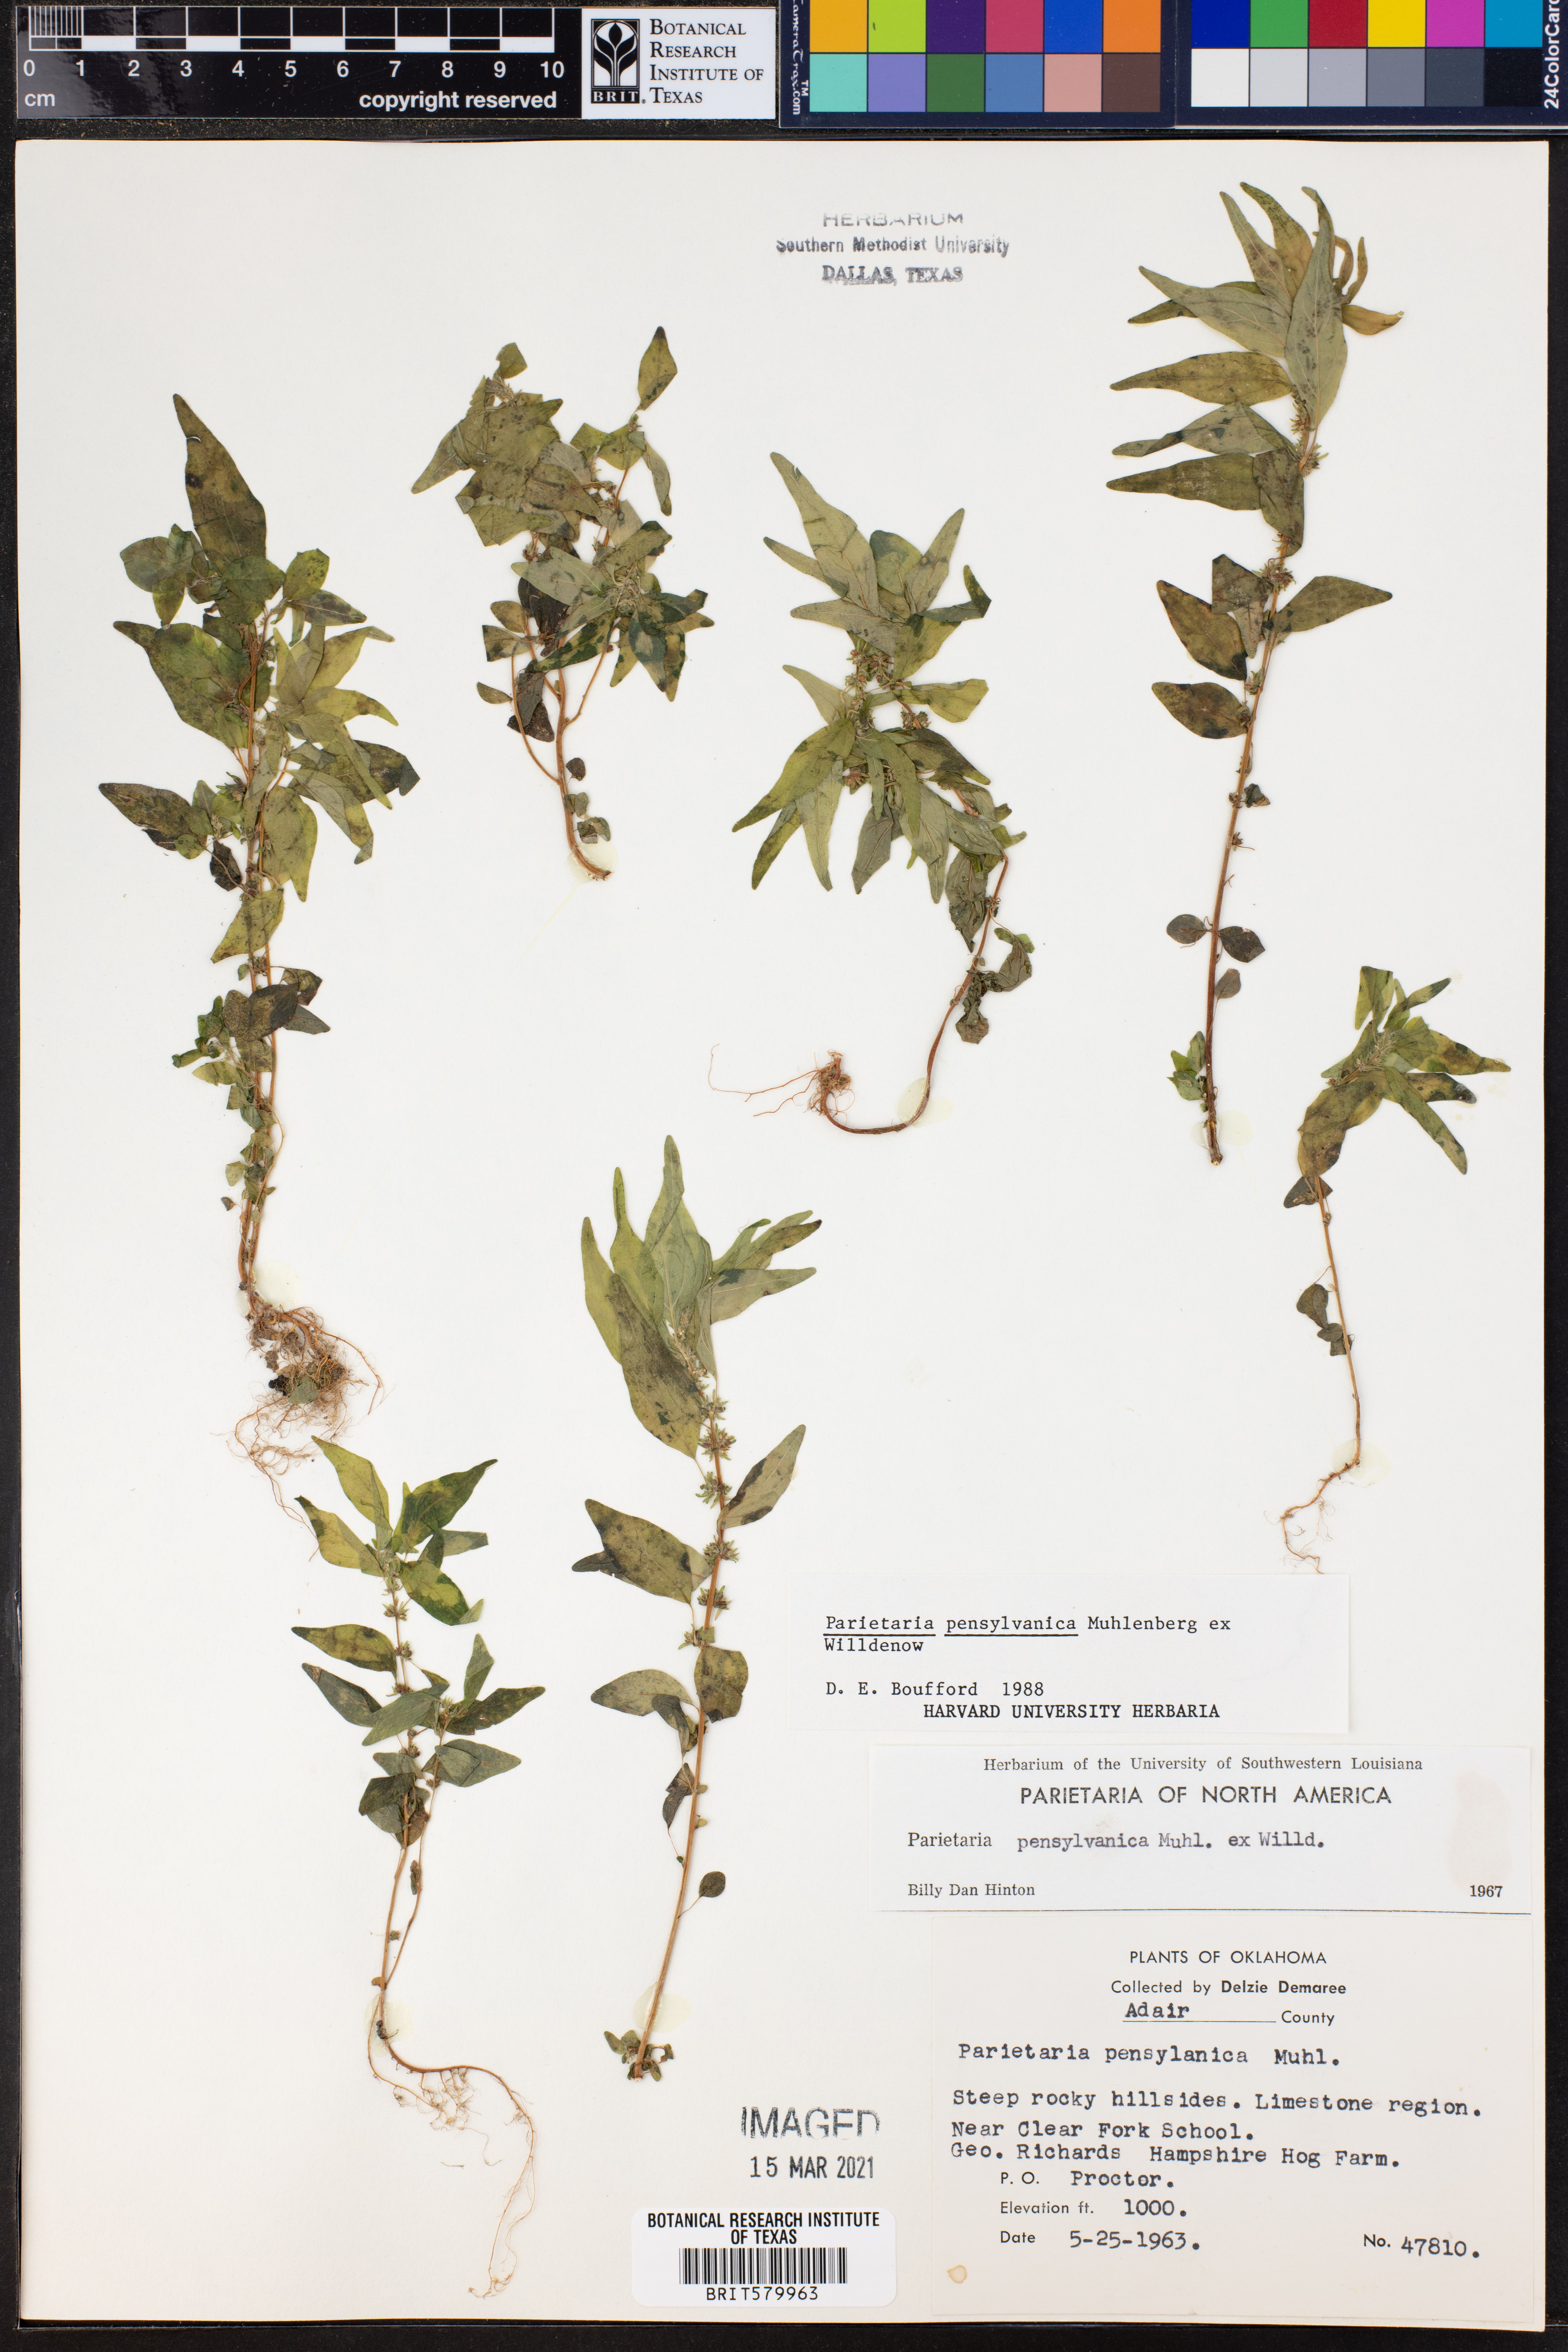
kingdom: Plantae
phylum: Tracheophyta
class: Magnoliopsida
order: Rosales
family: Urticaceae
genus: Parietaria
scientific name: Parietaria pensylvanica
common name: Pennsylvania pellitory
